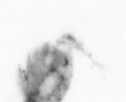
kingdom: Animalia
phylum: Arthropoda
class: Copepoda
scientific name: Copepoda
